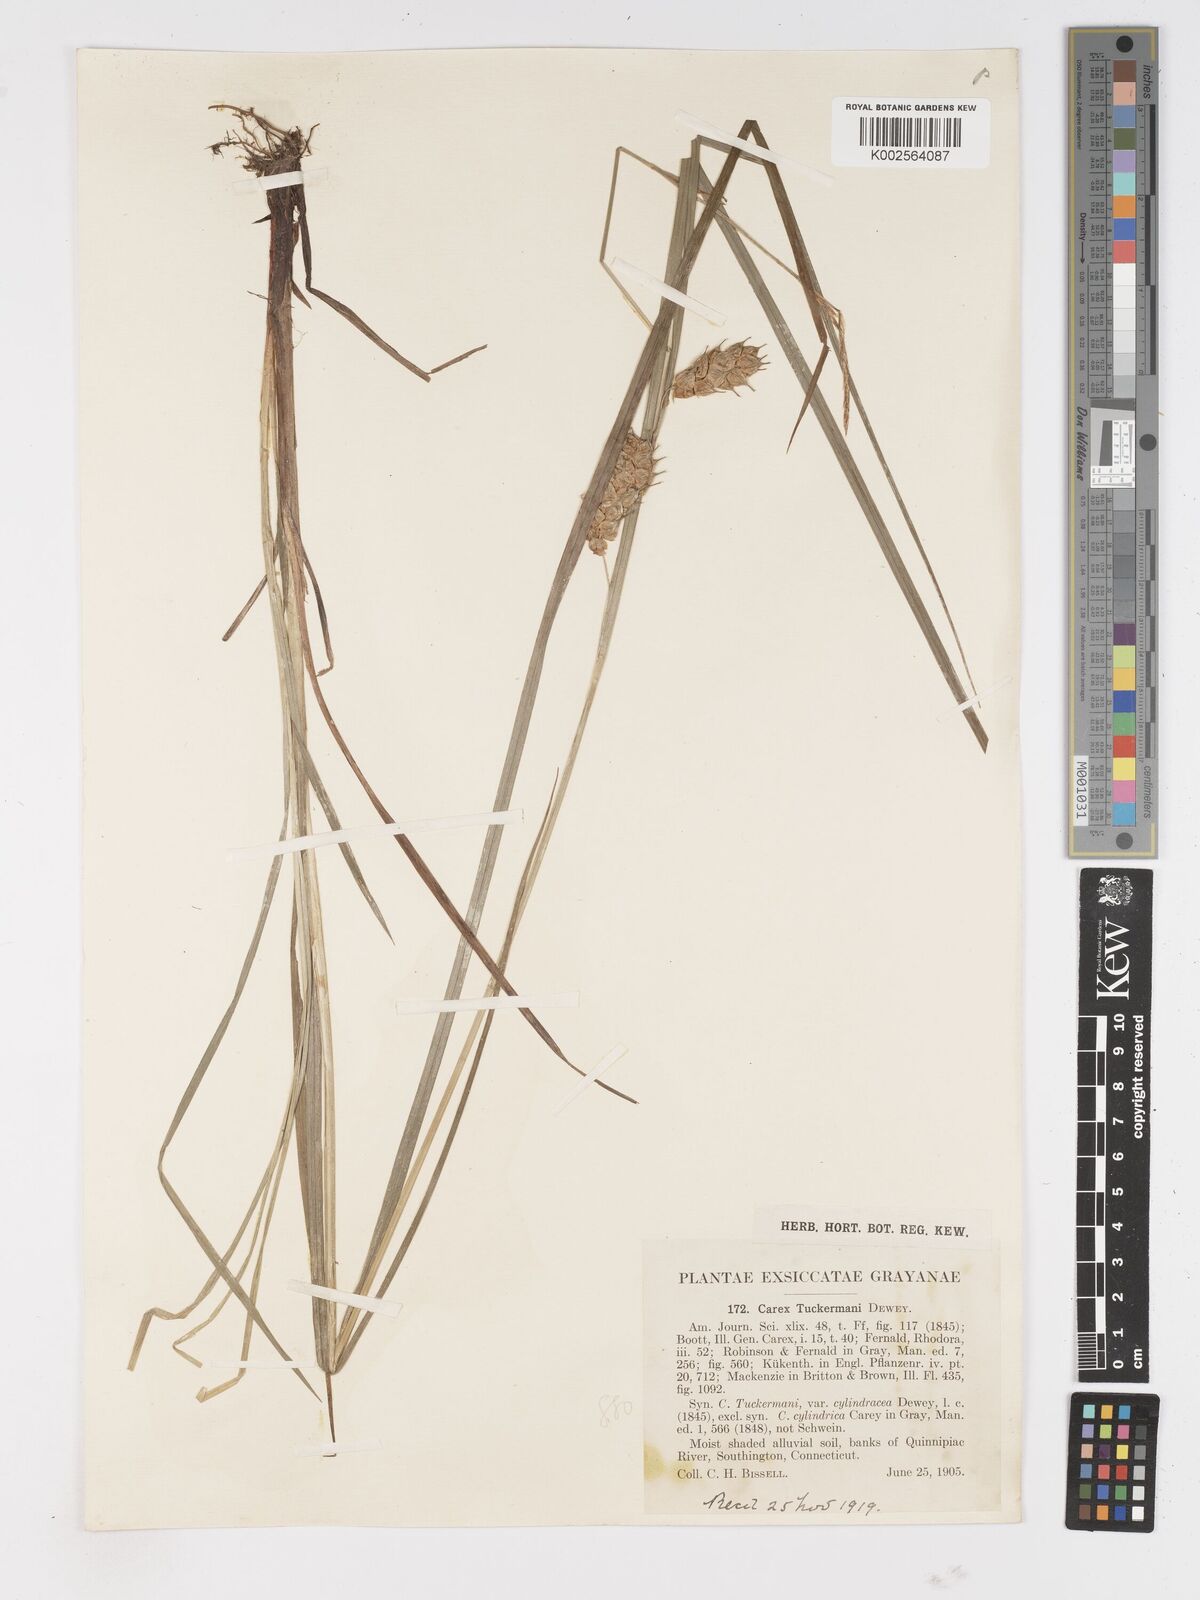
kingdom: Plantae
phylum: Tracheophyta
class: Liliopsida
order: Poales
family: Cyperaceae
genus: Carex
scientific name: Carex tuckermanii
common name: Tuckerman's sedge
